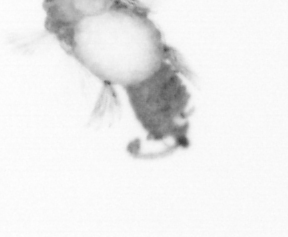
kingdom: Animalia
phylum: Annelida
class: Polychaeta
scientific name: Polychaeta
